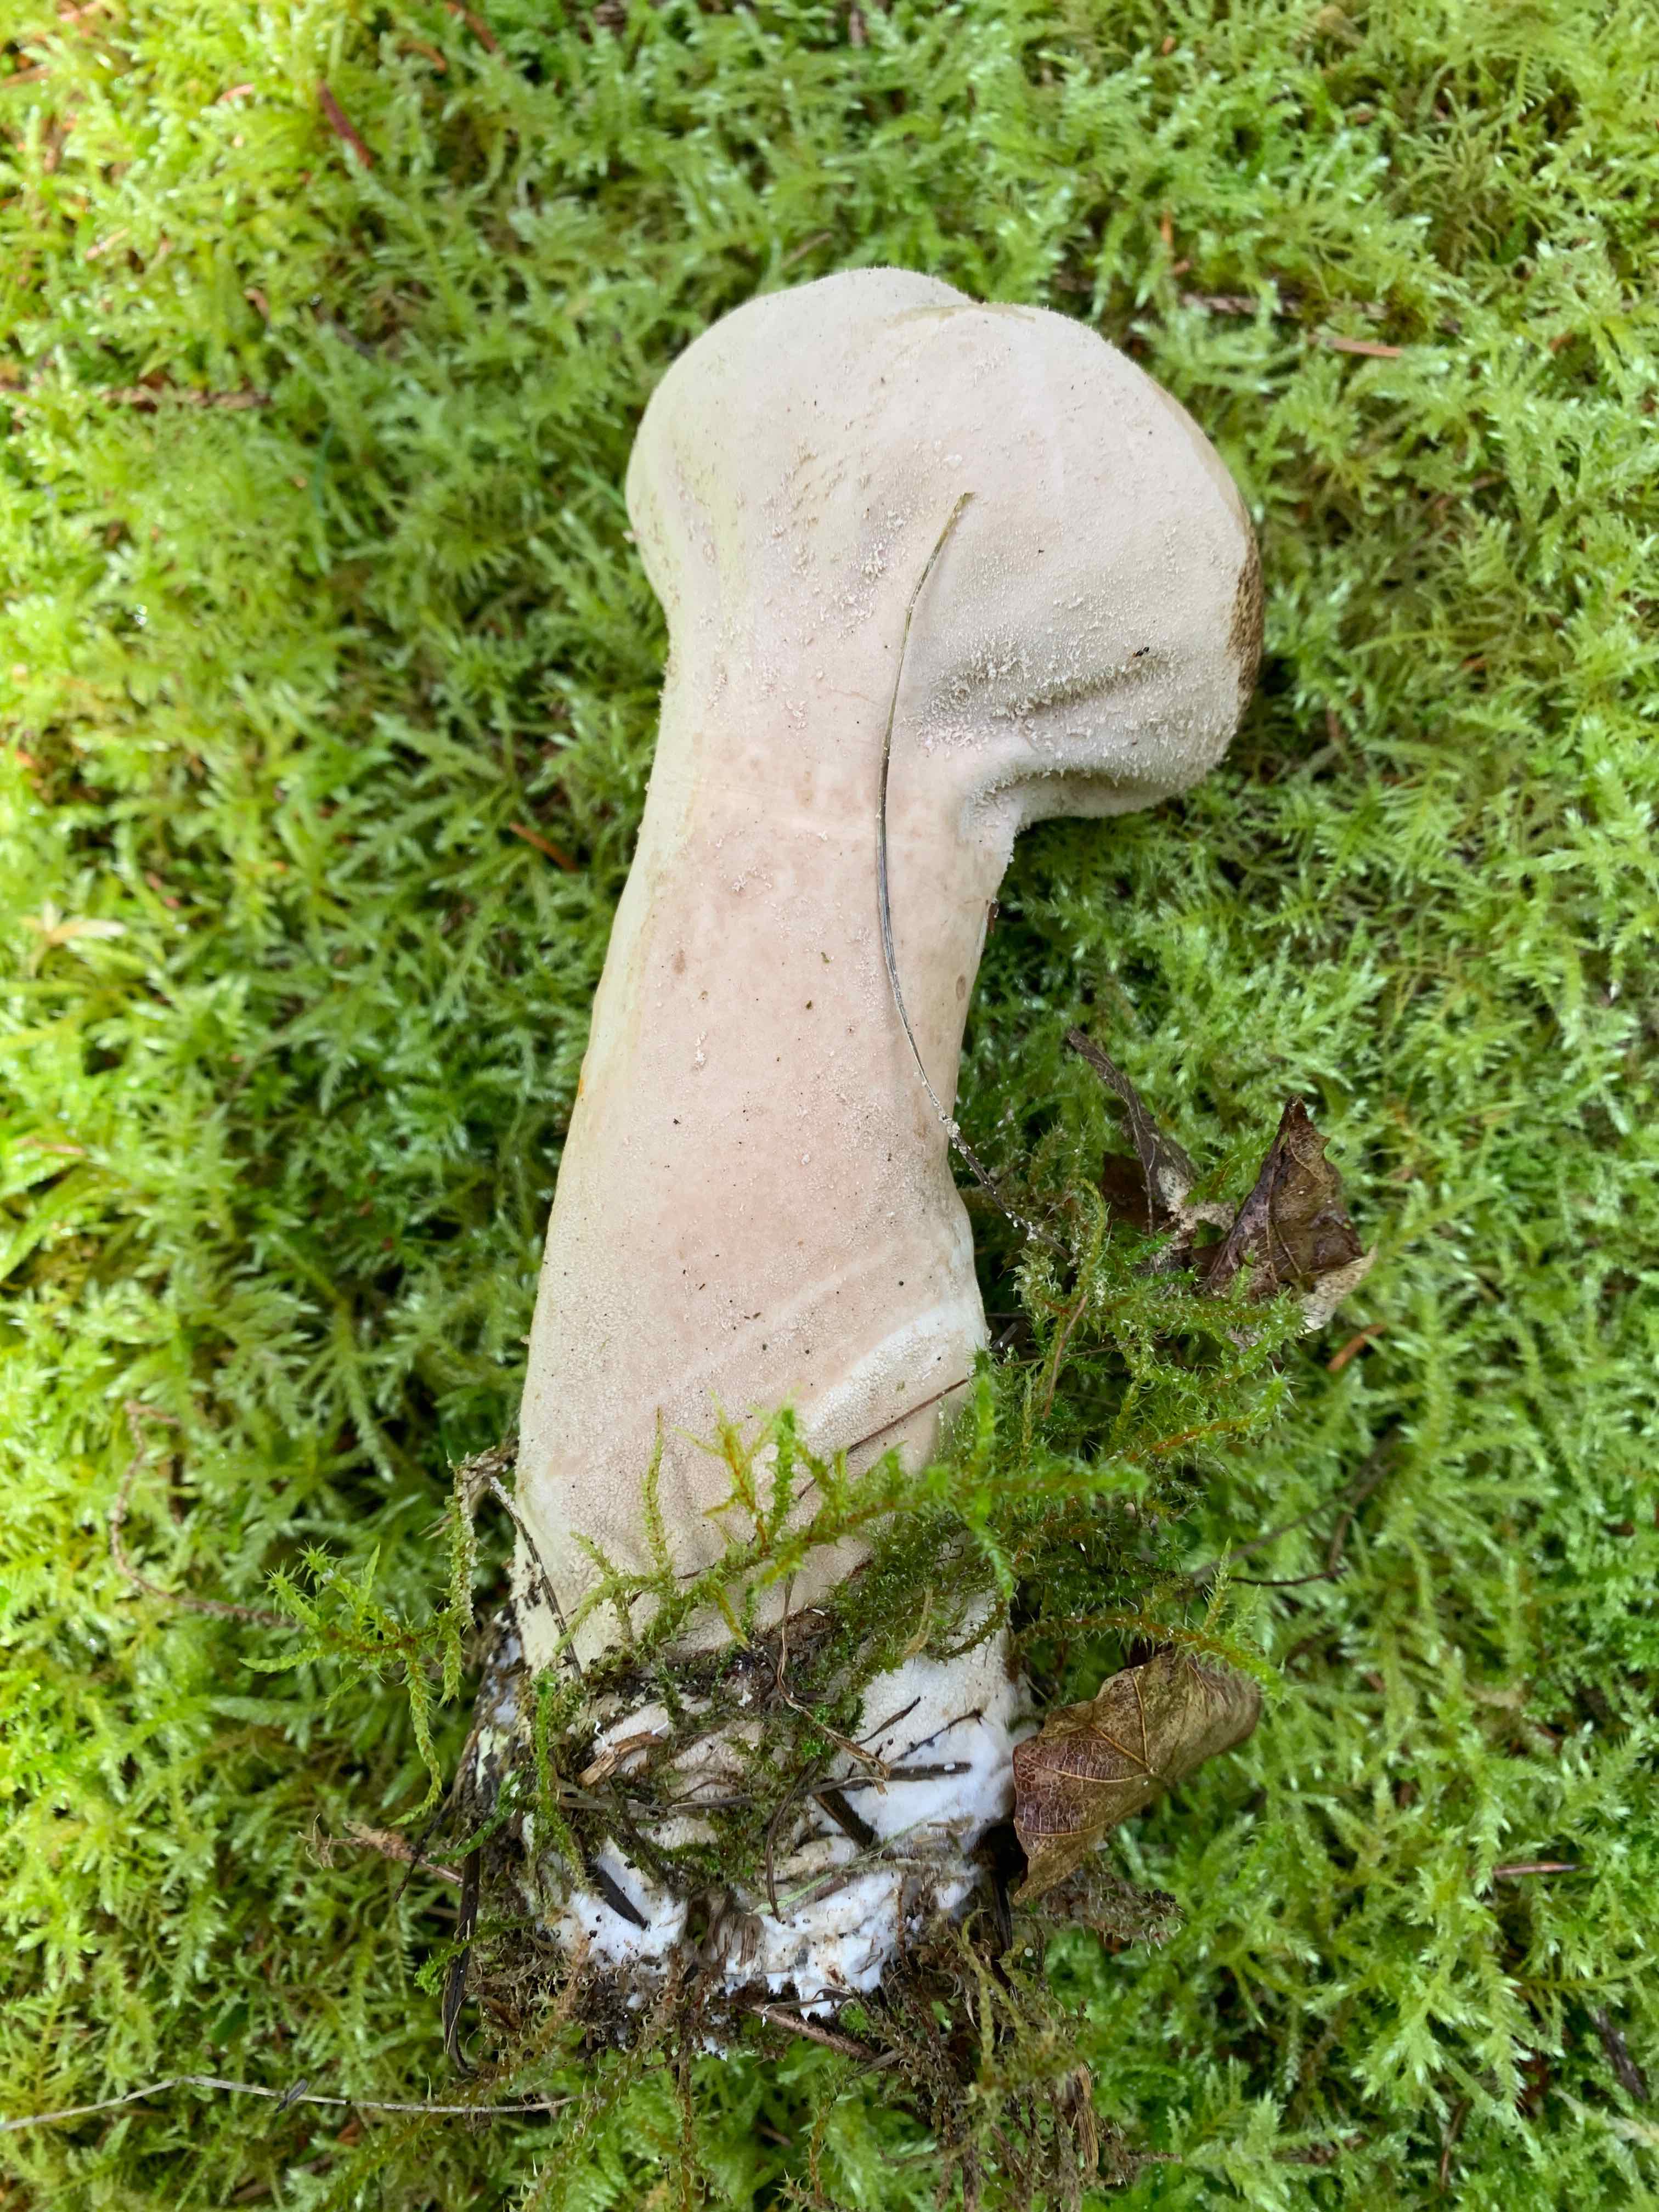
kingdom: Fungi
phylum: Basidiomycota
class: Agaricomycetes
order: Agaricales
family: Lycoperdaceae
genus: Lycoperdon
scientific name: Lycoperdon excipuliforme
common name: højstokket støvbold
